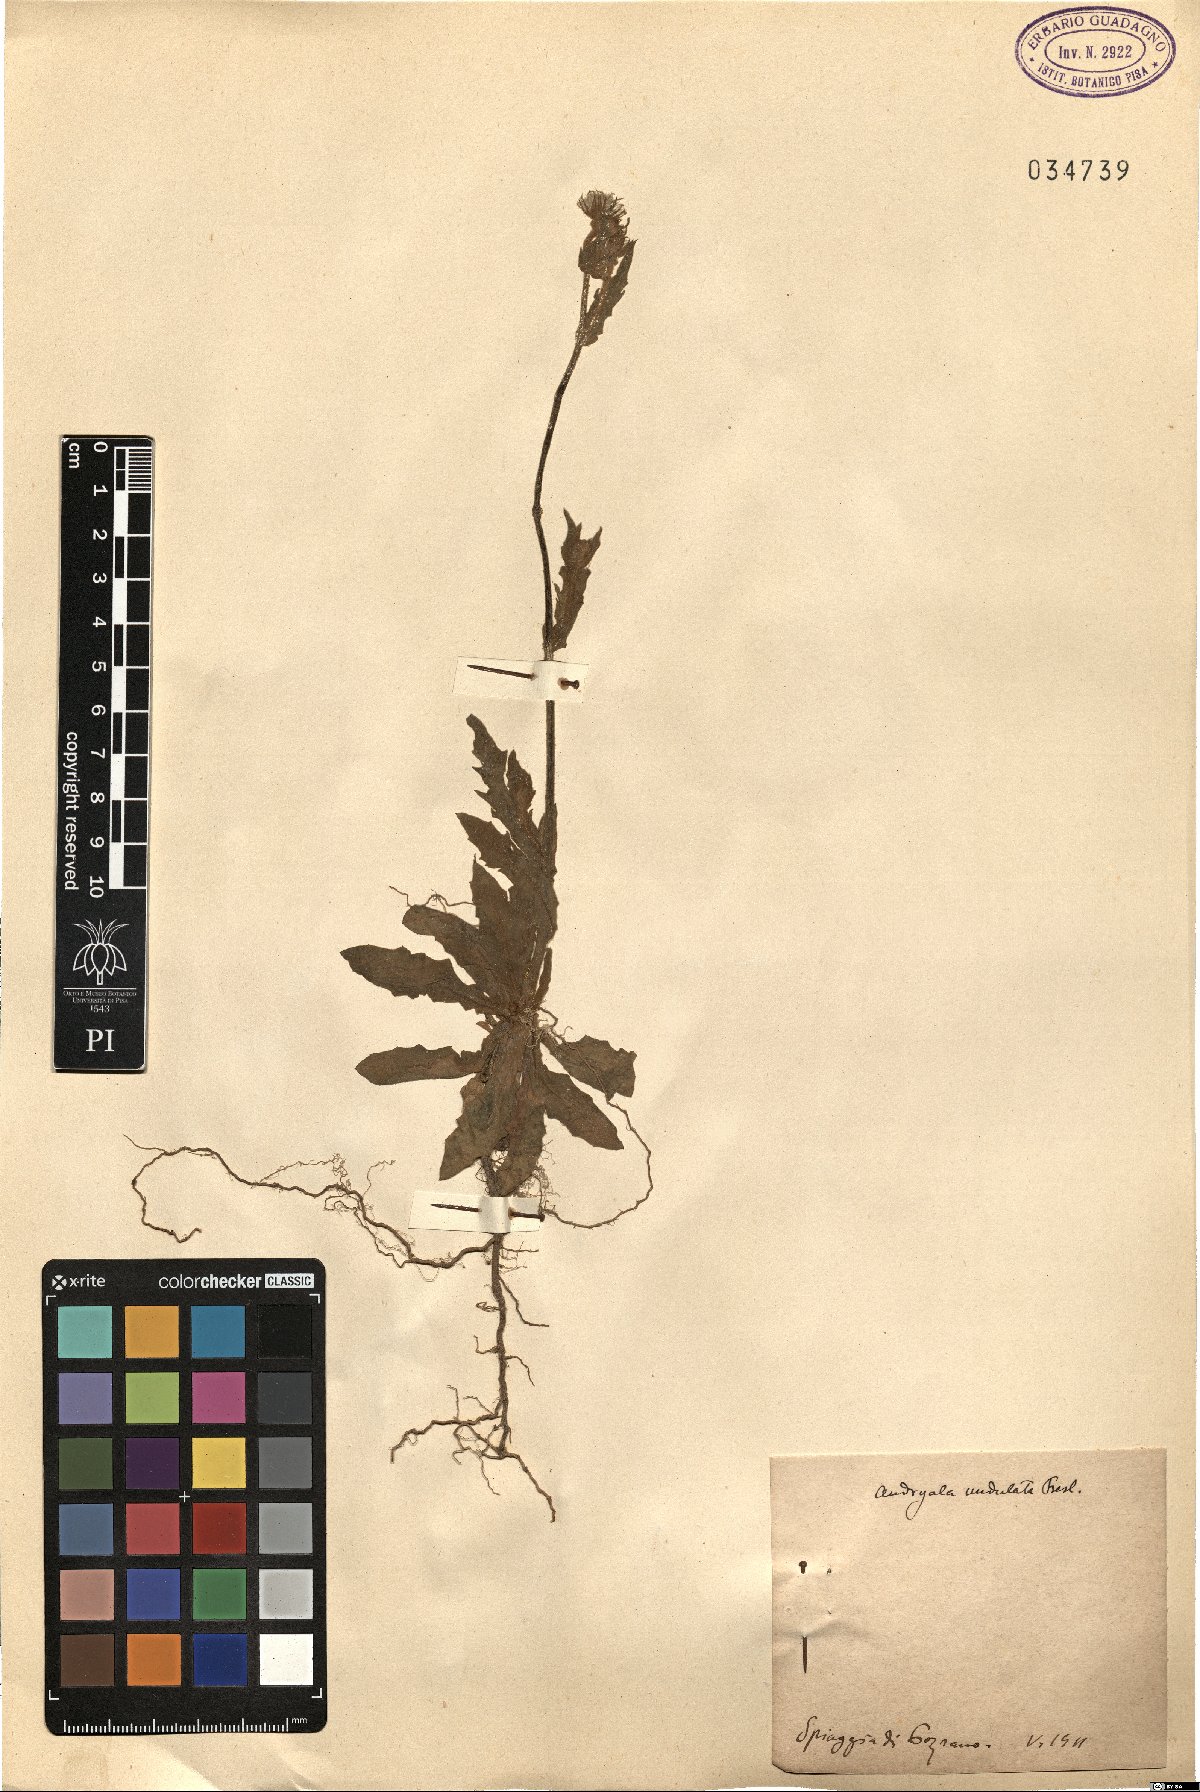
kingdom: Plantae
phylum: Tracheophyta
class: Magnoliopsida
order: Asterales
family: Asteraceae
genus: Andryala
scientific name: Andryala integrifolia
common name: Common andryala
